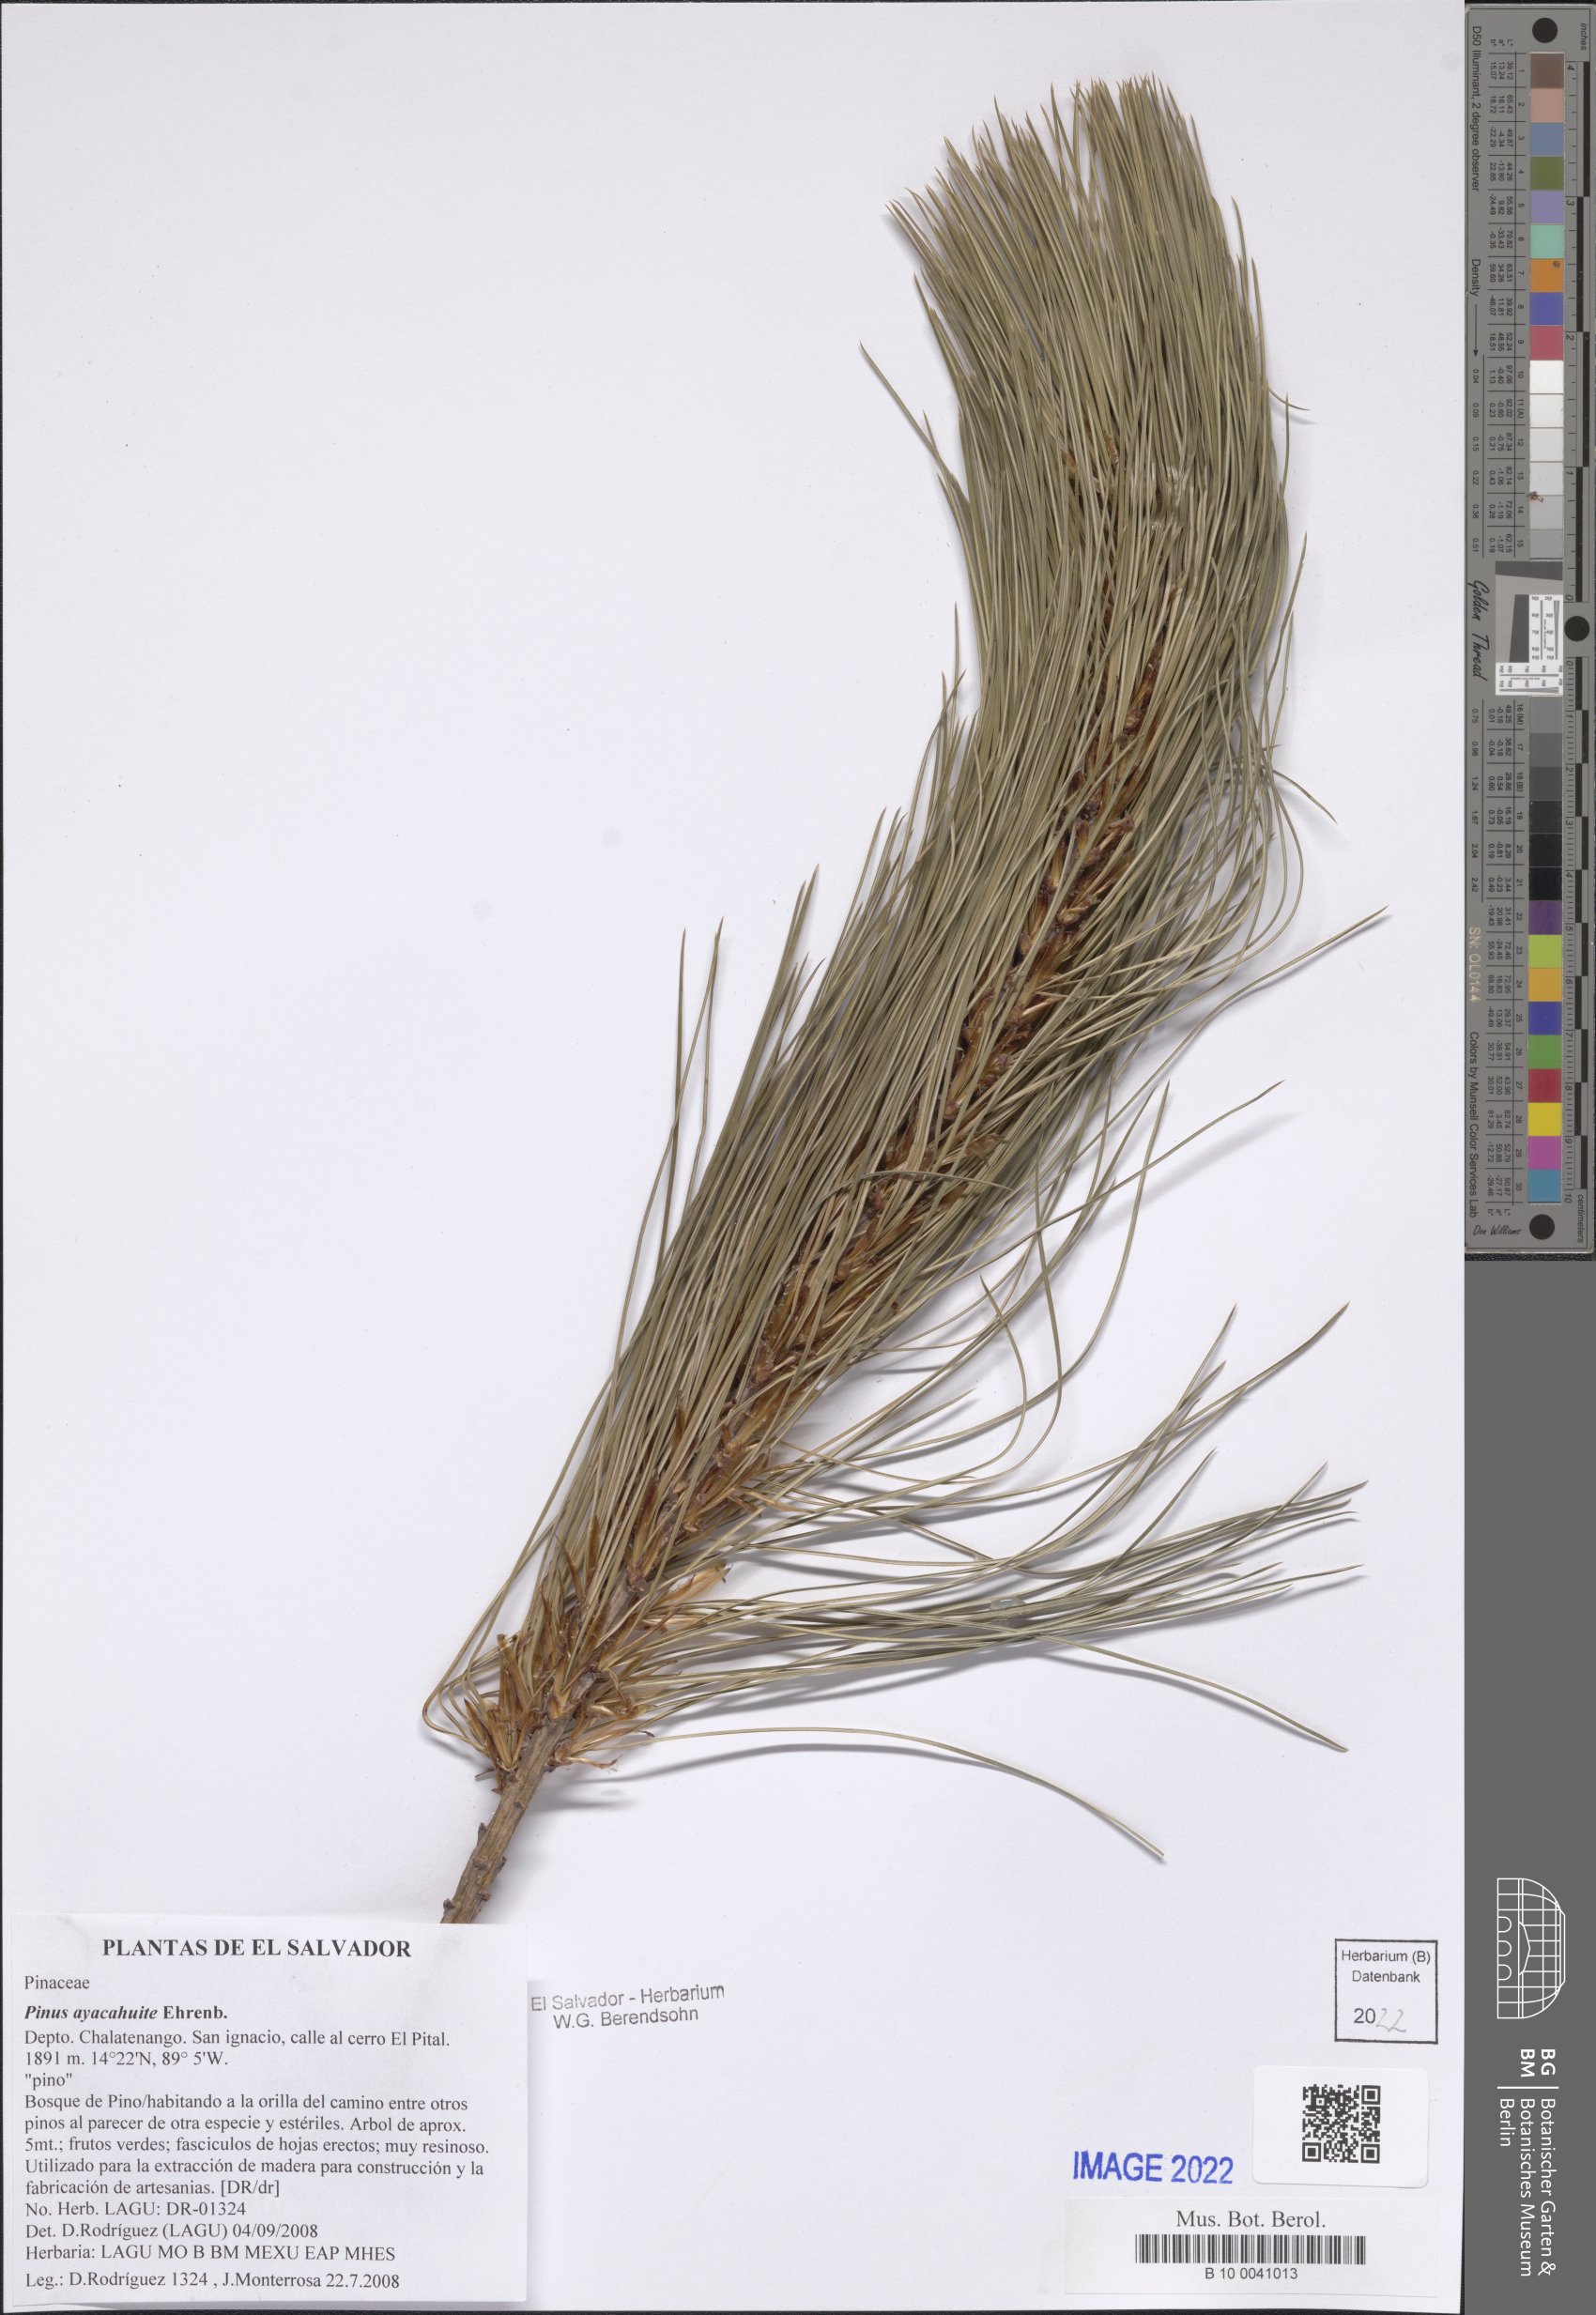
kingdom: Plantae
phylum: Tracheophyta
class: Pinopsida
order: Pinales
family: Pinaceae
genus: Pinus
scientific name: Pinus ayacahuite
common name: Mexican white pine
